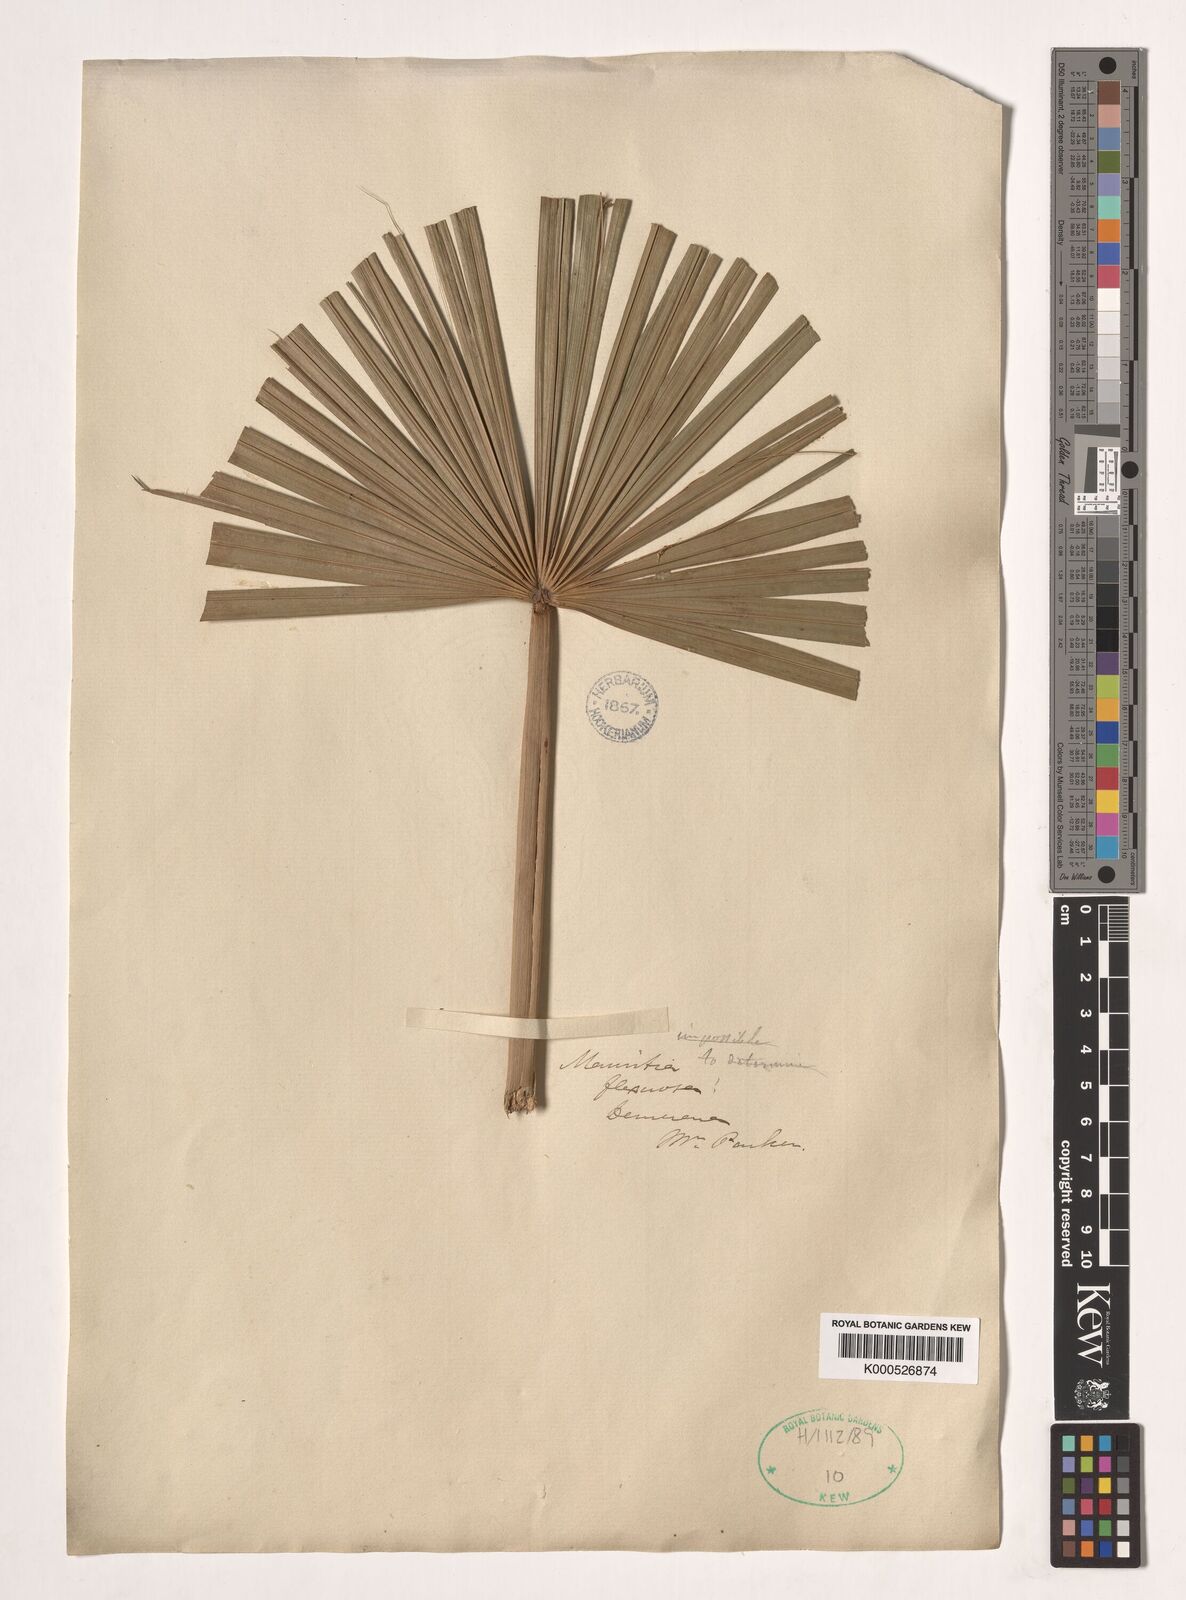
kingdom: Plantae
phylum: Tracheophyta
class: Liliopsida
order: Arecales
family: Arecaceae
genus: Mauritia
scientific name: Mauritia flexuosa
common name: Tree-of-life
